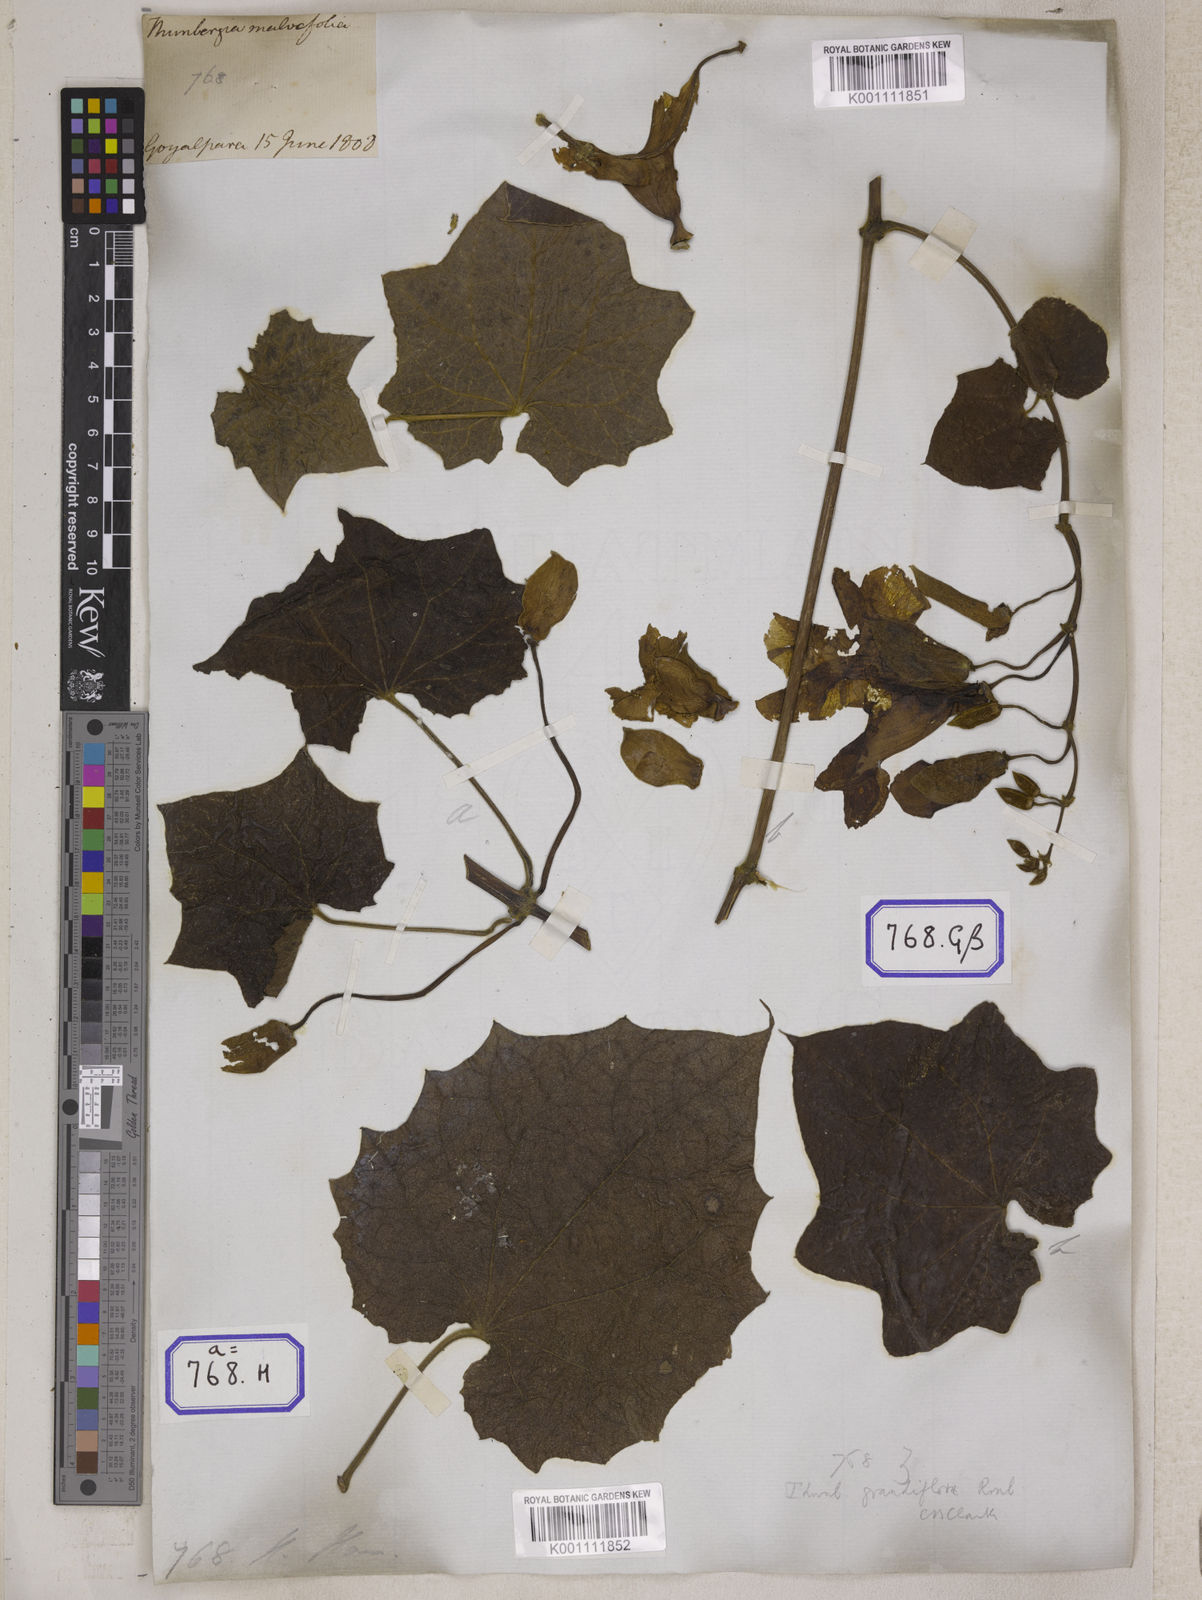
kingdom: Plantae
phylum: Tracheophyta
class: Magnoliopsida
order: Lamiales
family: Acanthaceae
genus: Thunbergia
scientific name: Thunbergia grandiflora
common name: Bengal trumpet
